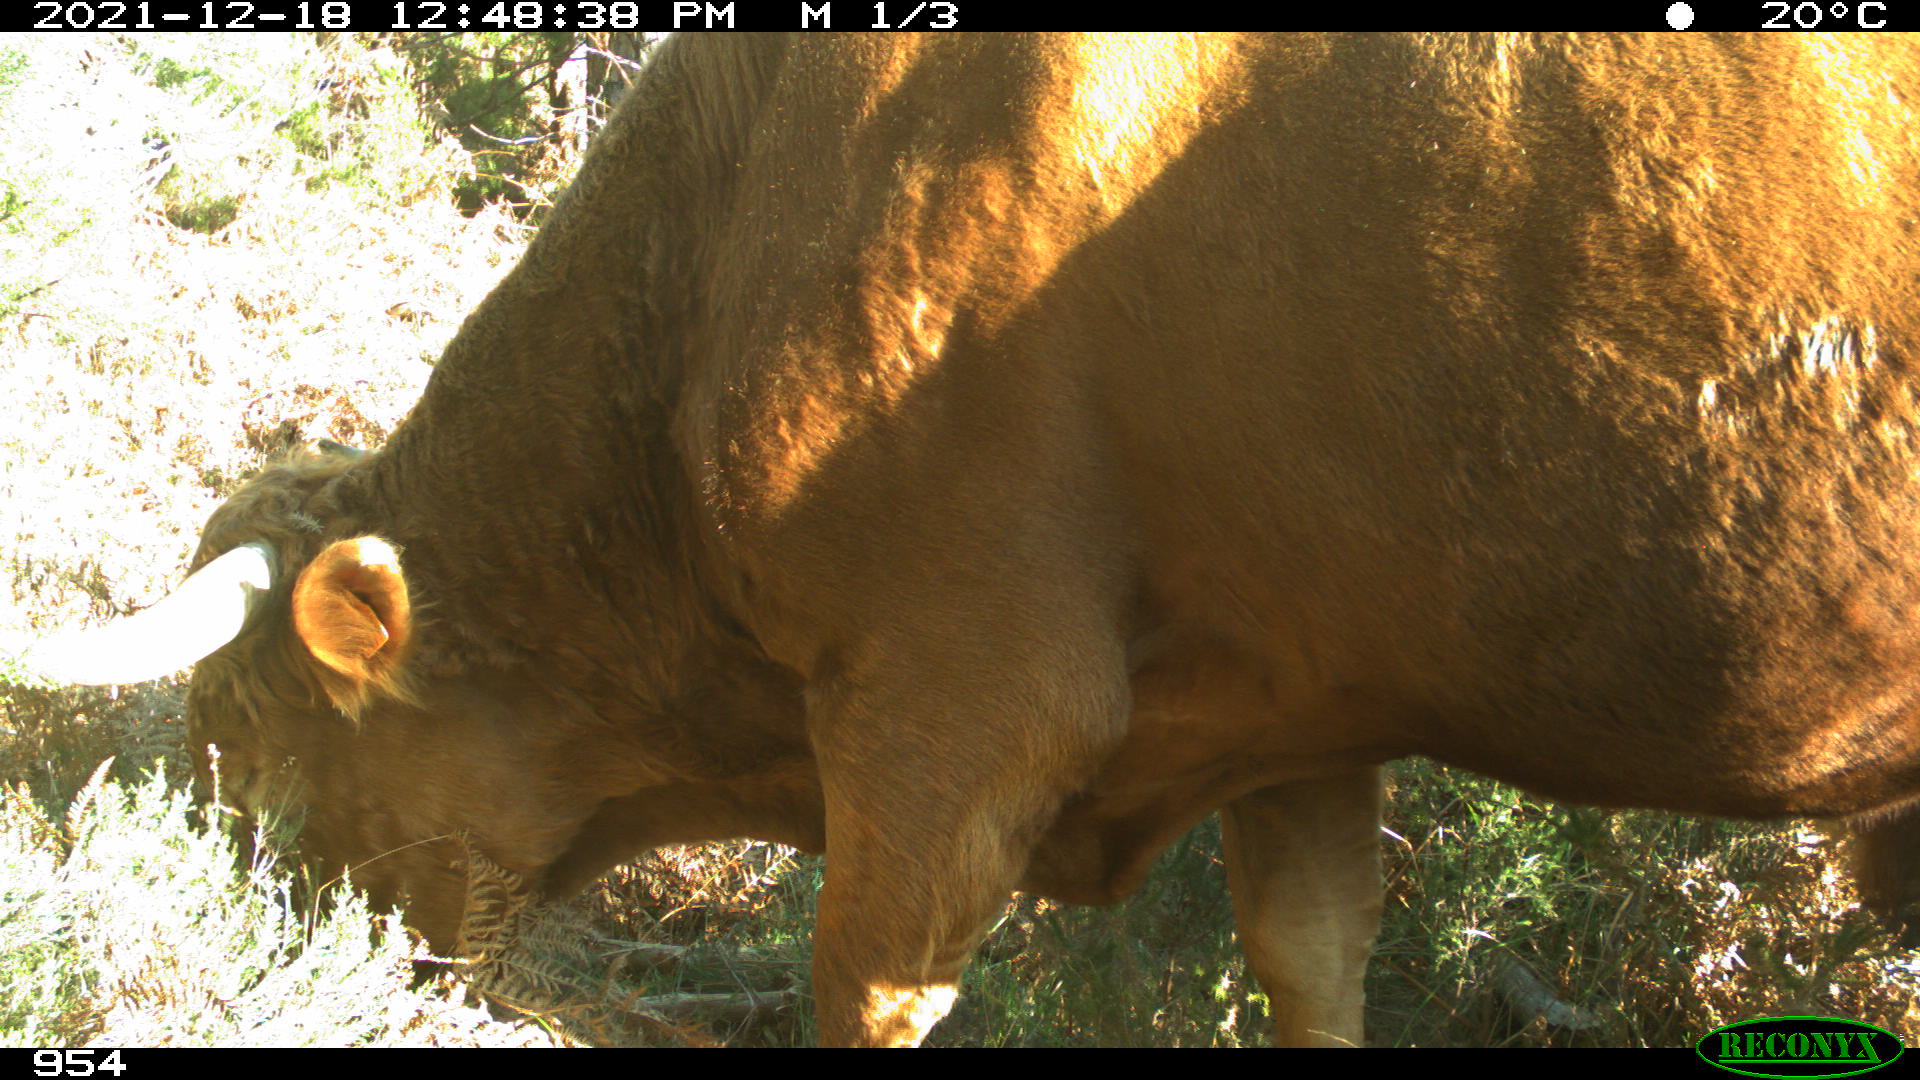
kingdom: Animalia
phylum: Chordata
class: Mammalia
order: Artiodactyla
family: Bovidae
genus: Bos
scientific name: Bos taurus
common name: Domesticated cattle
